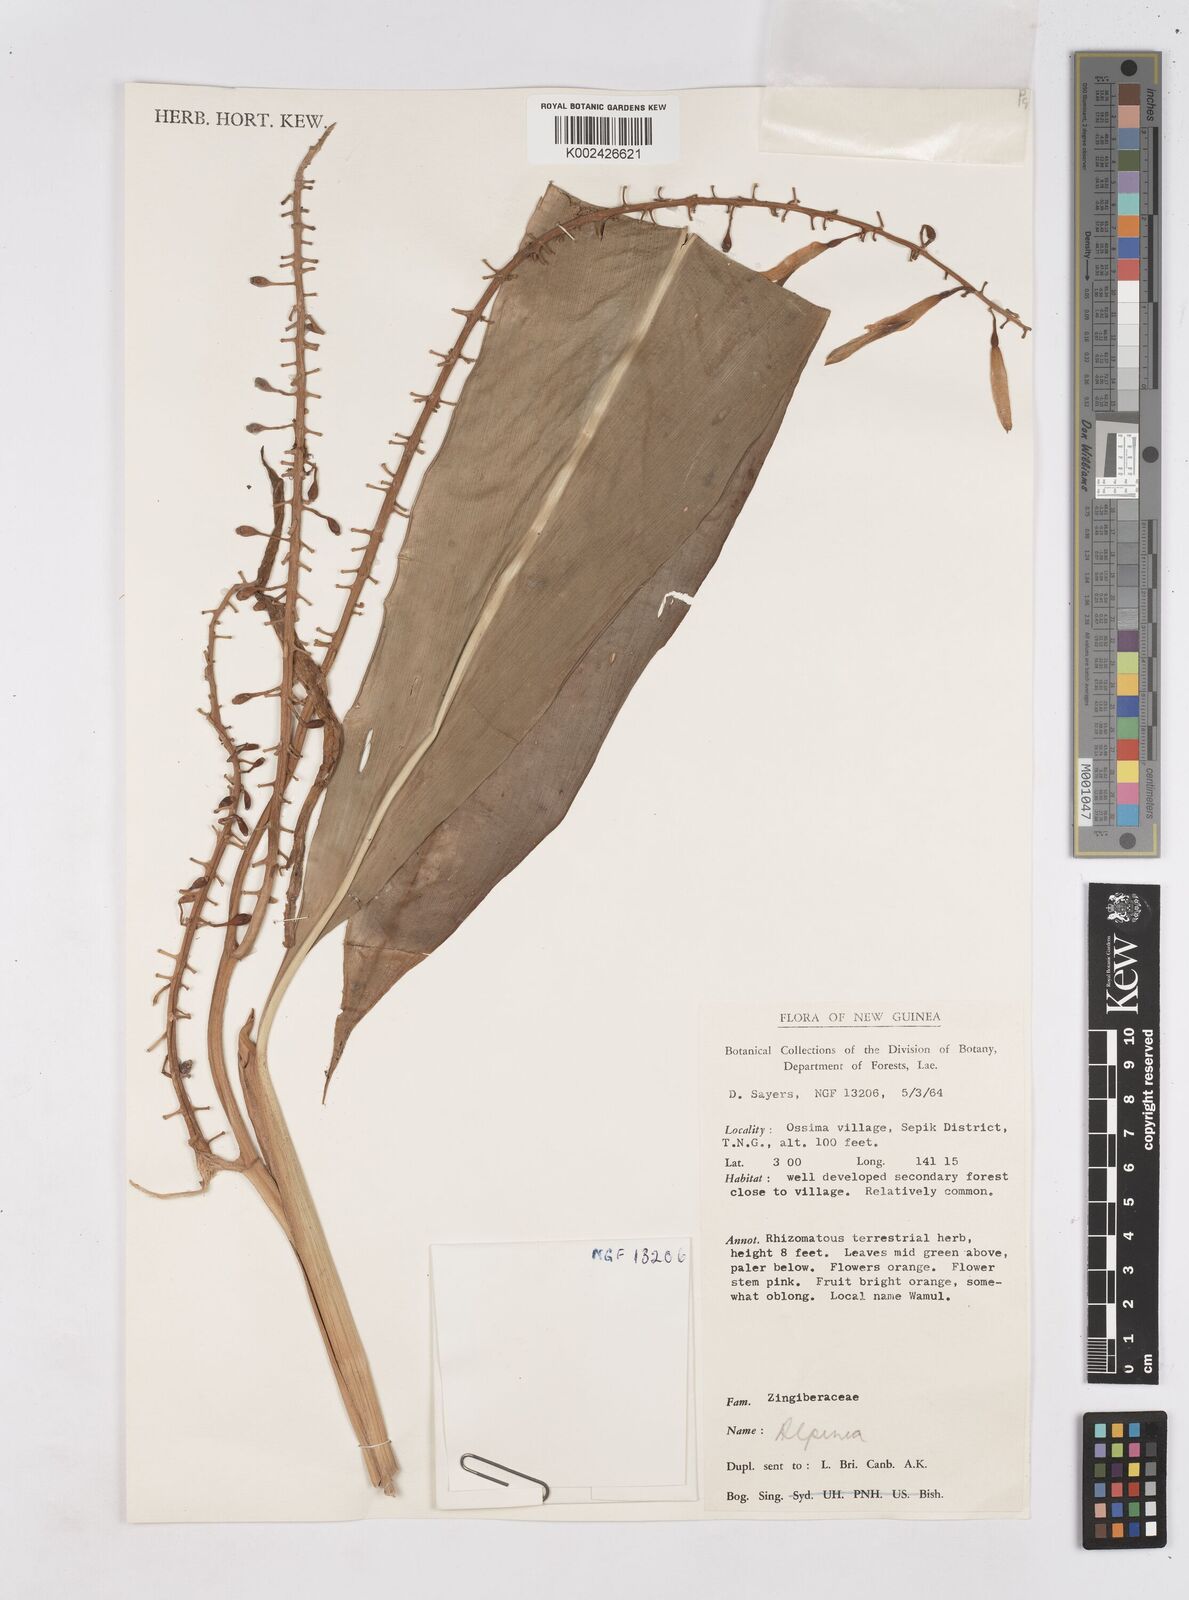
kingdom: Plantae
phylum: Tracheophyta
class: Liliopsida
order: Zingiberales
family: Zingiberaceae
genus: Riedelia
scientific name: Riedelia
